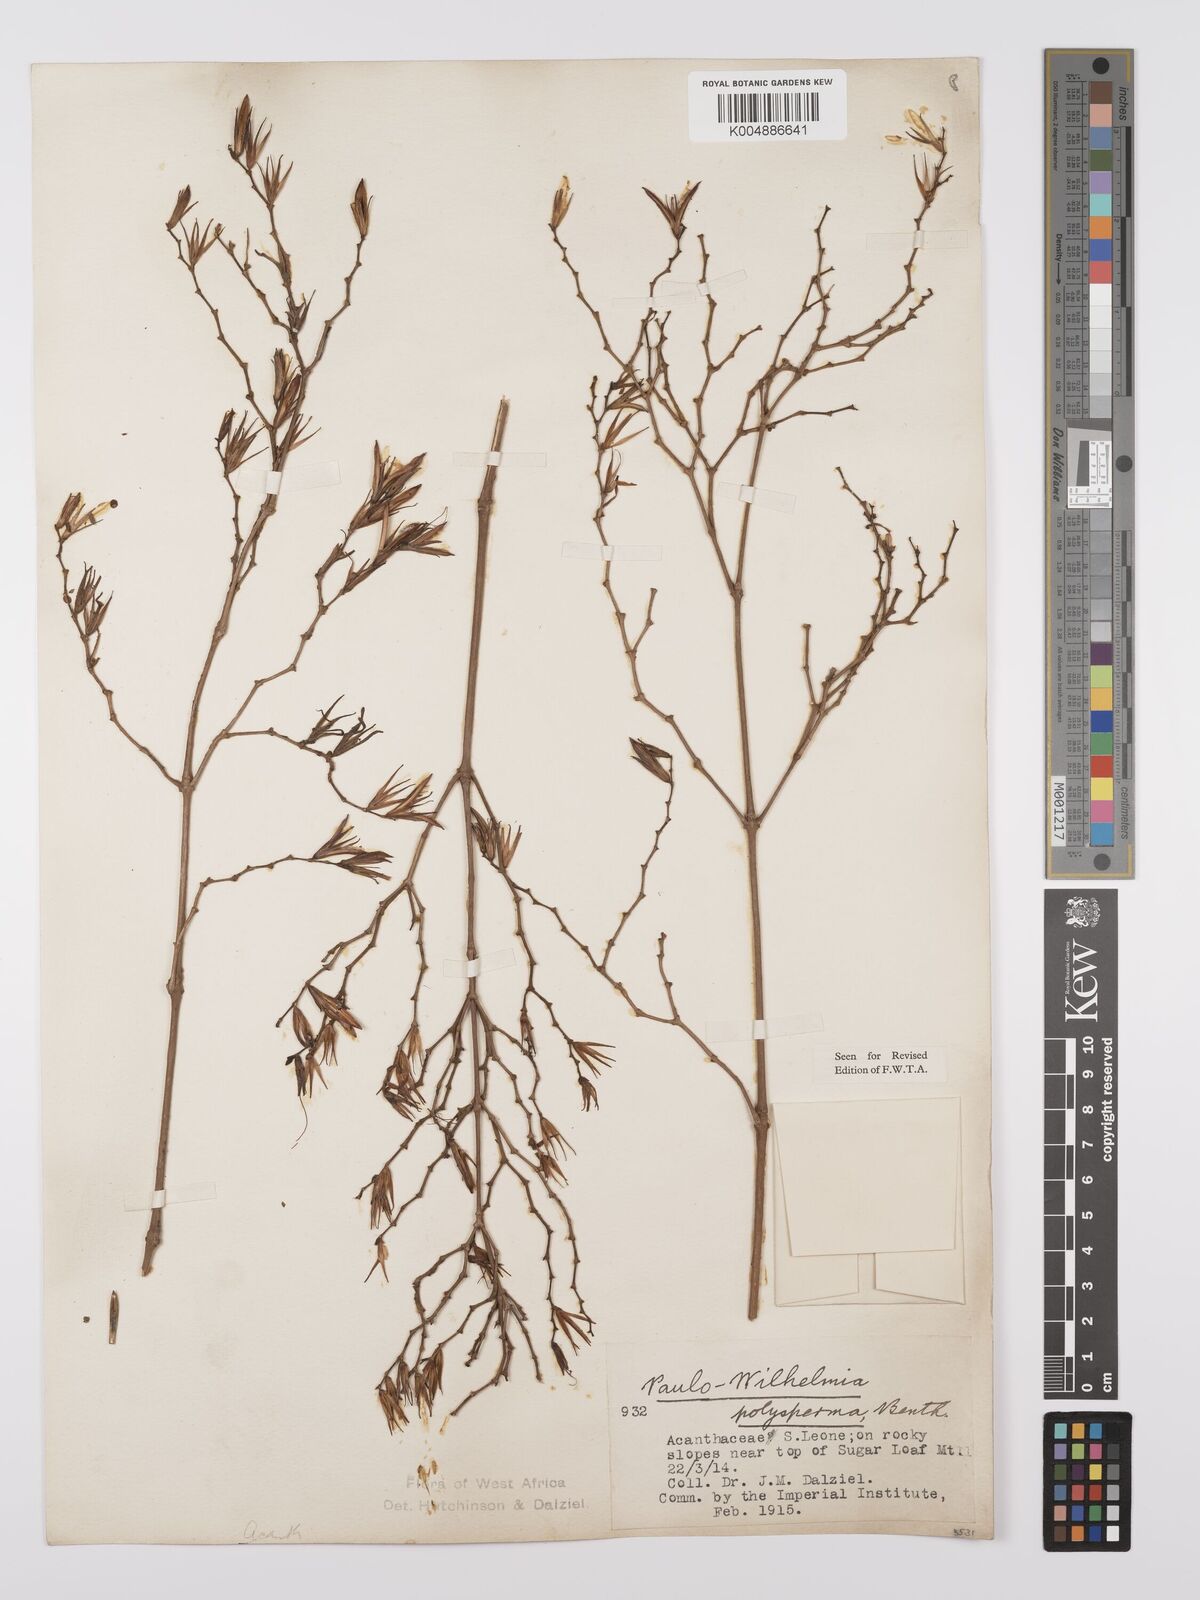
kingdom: Plantae
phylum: Tracheophyta
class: Magnoliopsida
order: Lamiales
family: Acanthaceae
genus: Eremomastax
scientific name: Eremomastax speciosa
